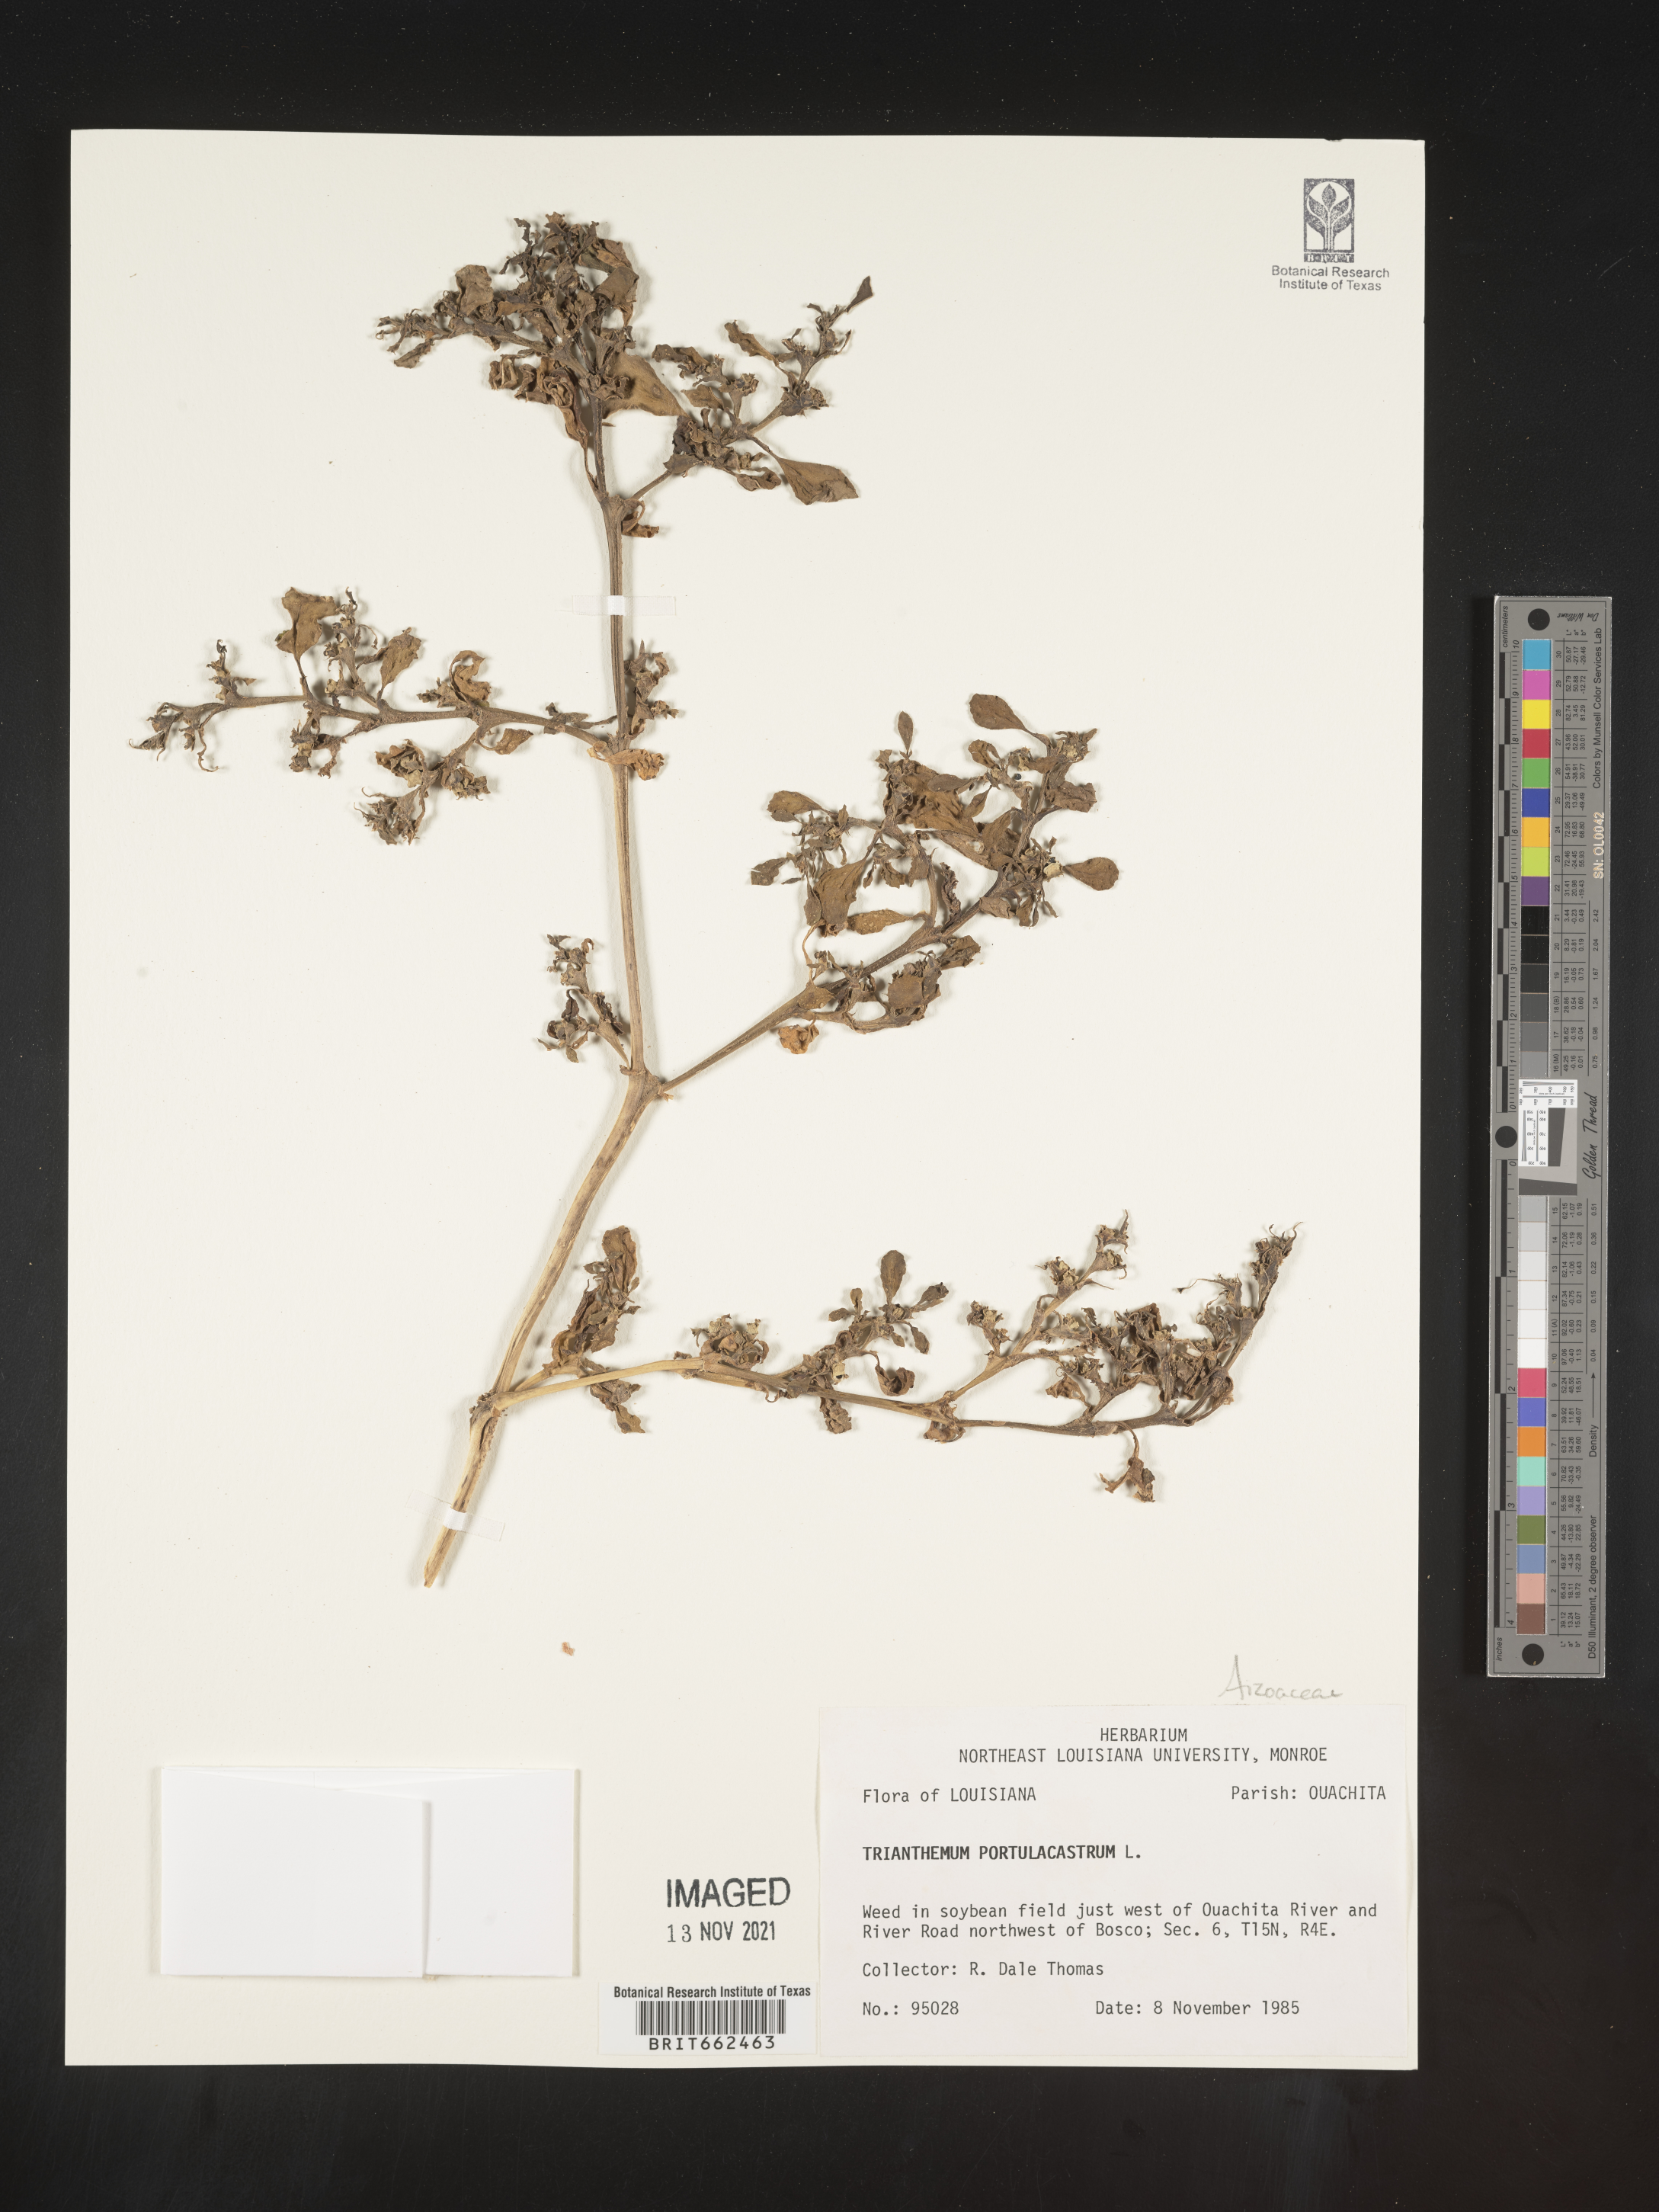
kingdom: Plantae
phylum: Tracheophyta
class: Magnoliopsida
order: Caryophyllales
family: Aizoaceae
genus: Trianthema
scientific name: Trianthema
